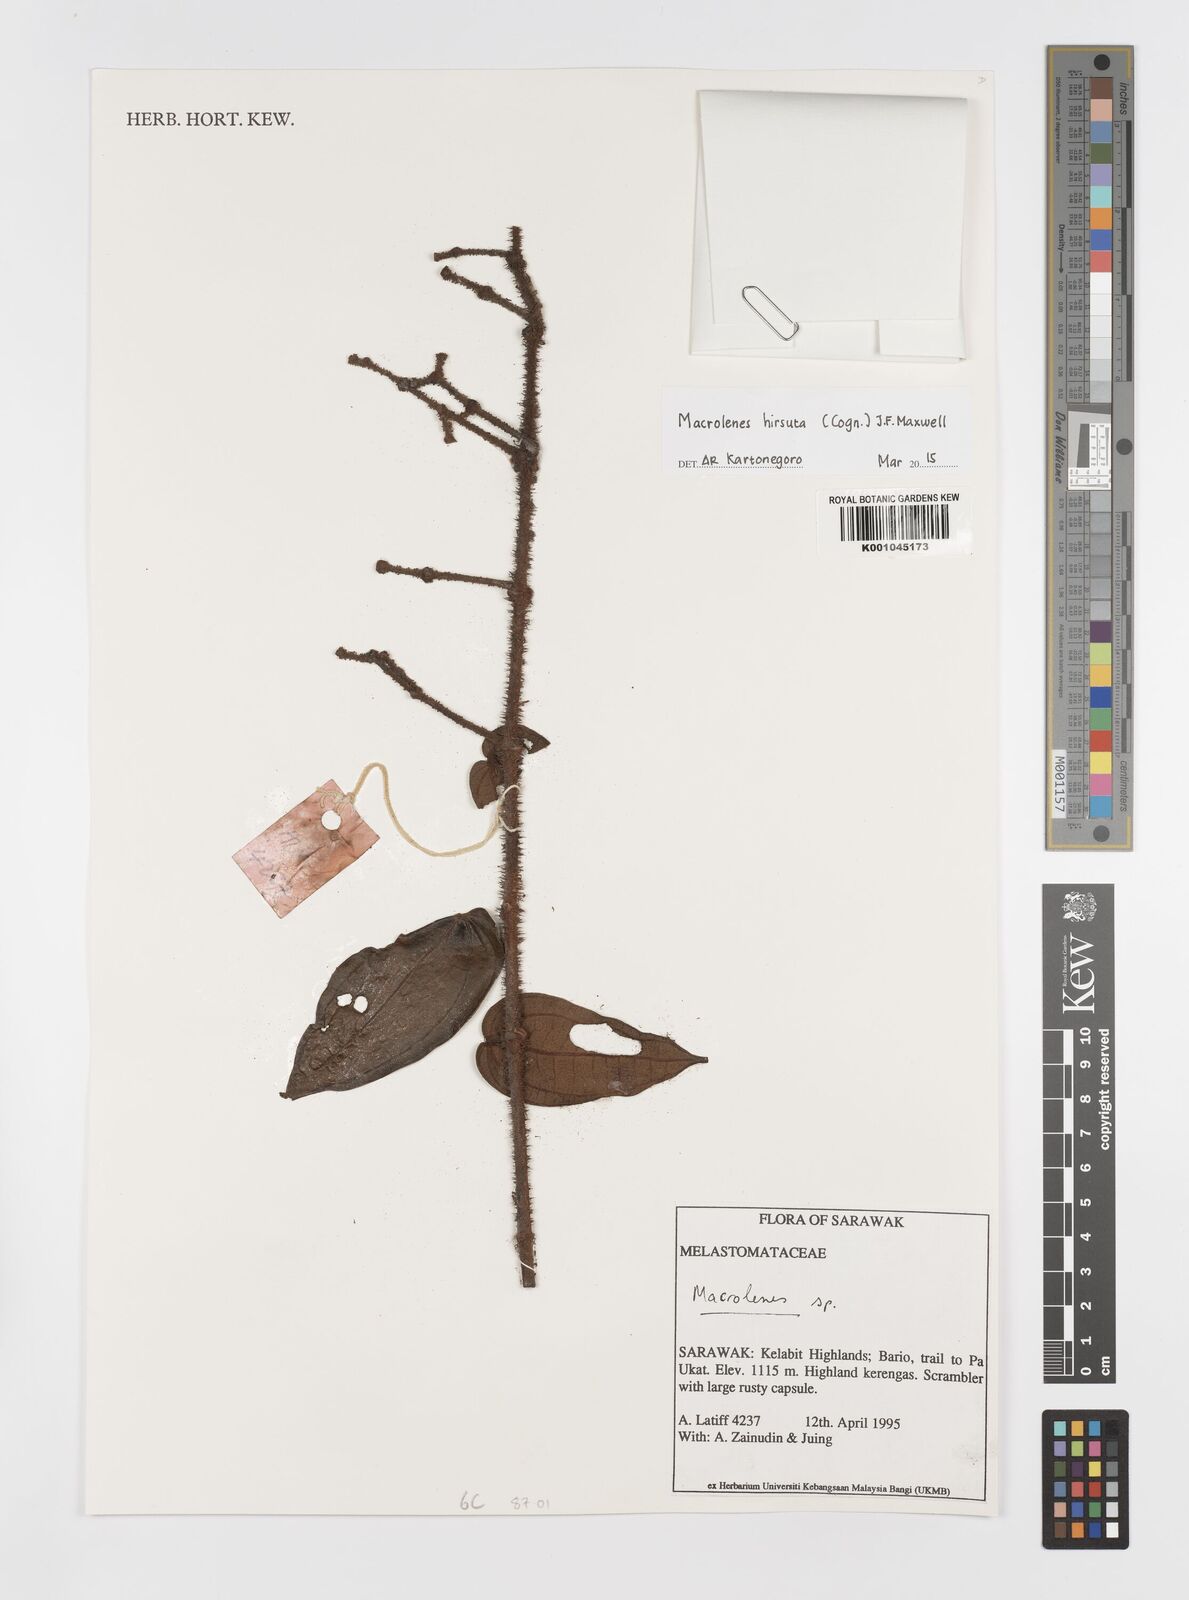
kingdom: Plantae
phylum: Tracheophyta
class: Magnoliopsida
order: Myrtales
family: Melastomataceae
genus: Macrolenes
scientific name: Macrolenes hirsuta
